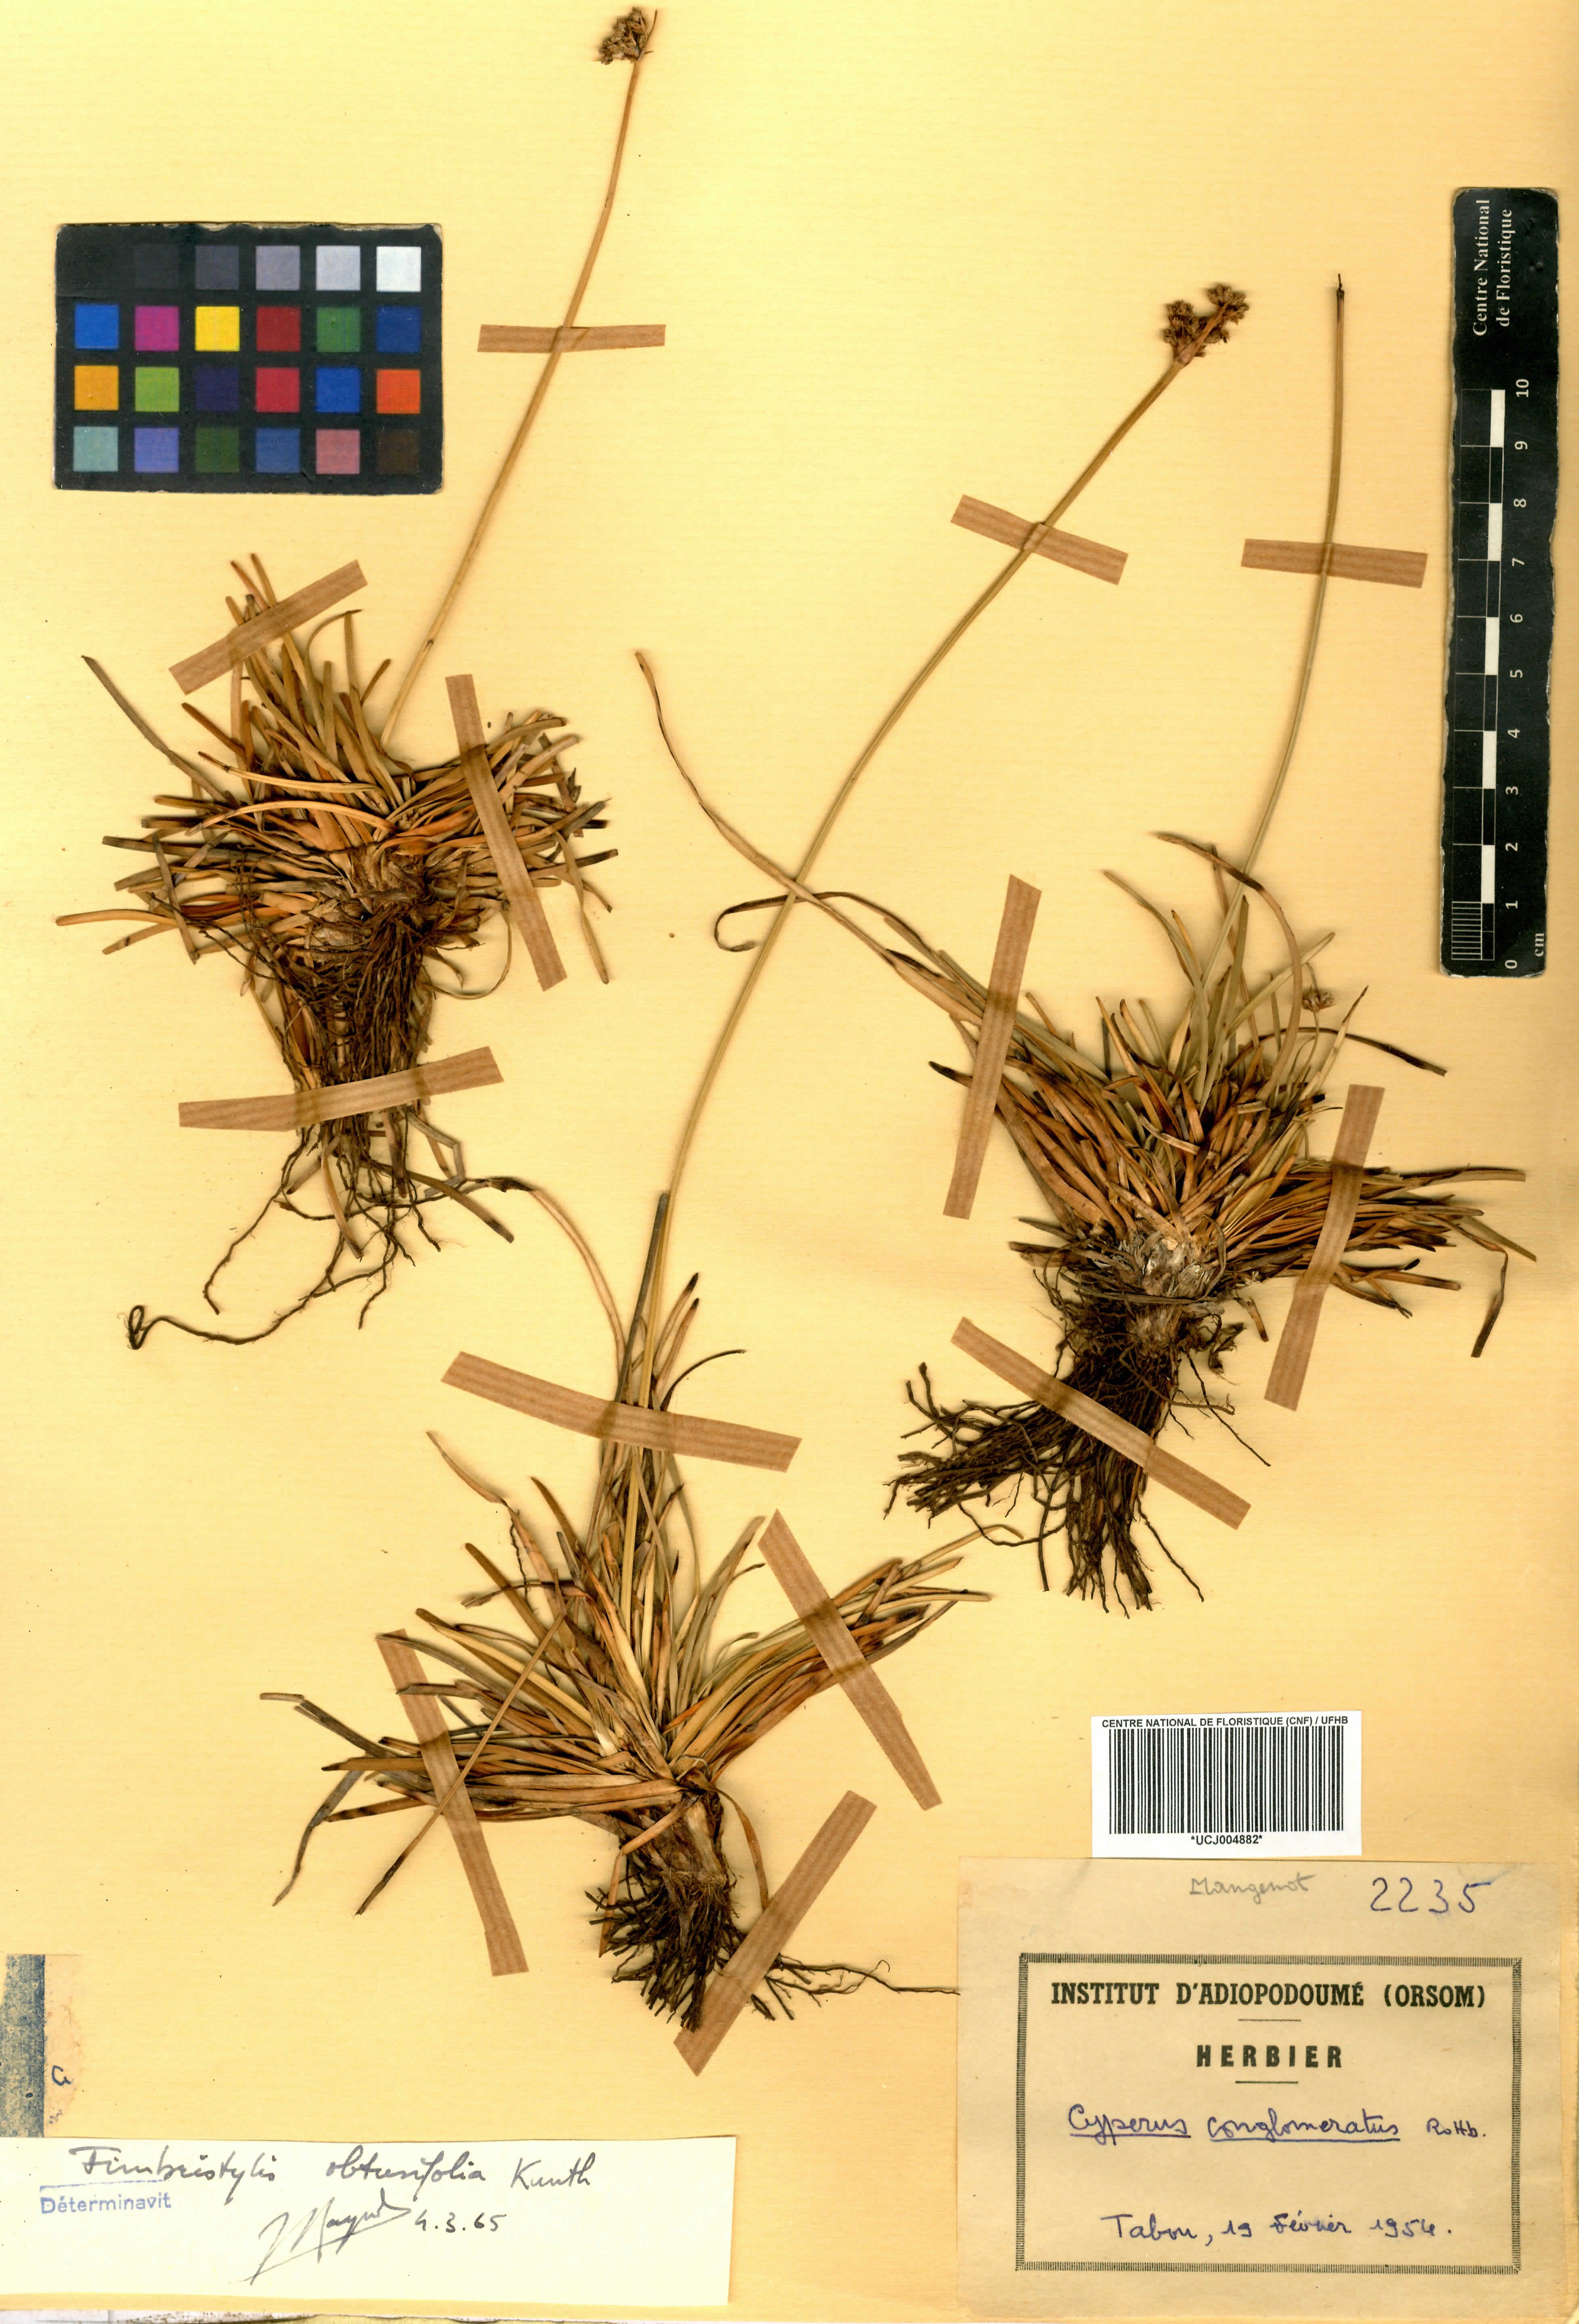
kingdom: Plantae
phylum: Tracheophyta
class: Liliopsida
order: Poales
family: Cyperaceae
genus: Fimbristylis
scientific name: Fimbristylis
